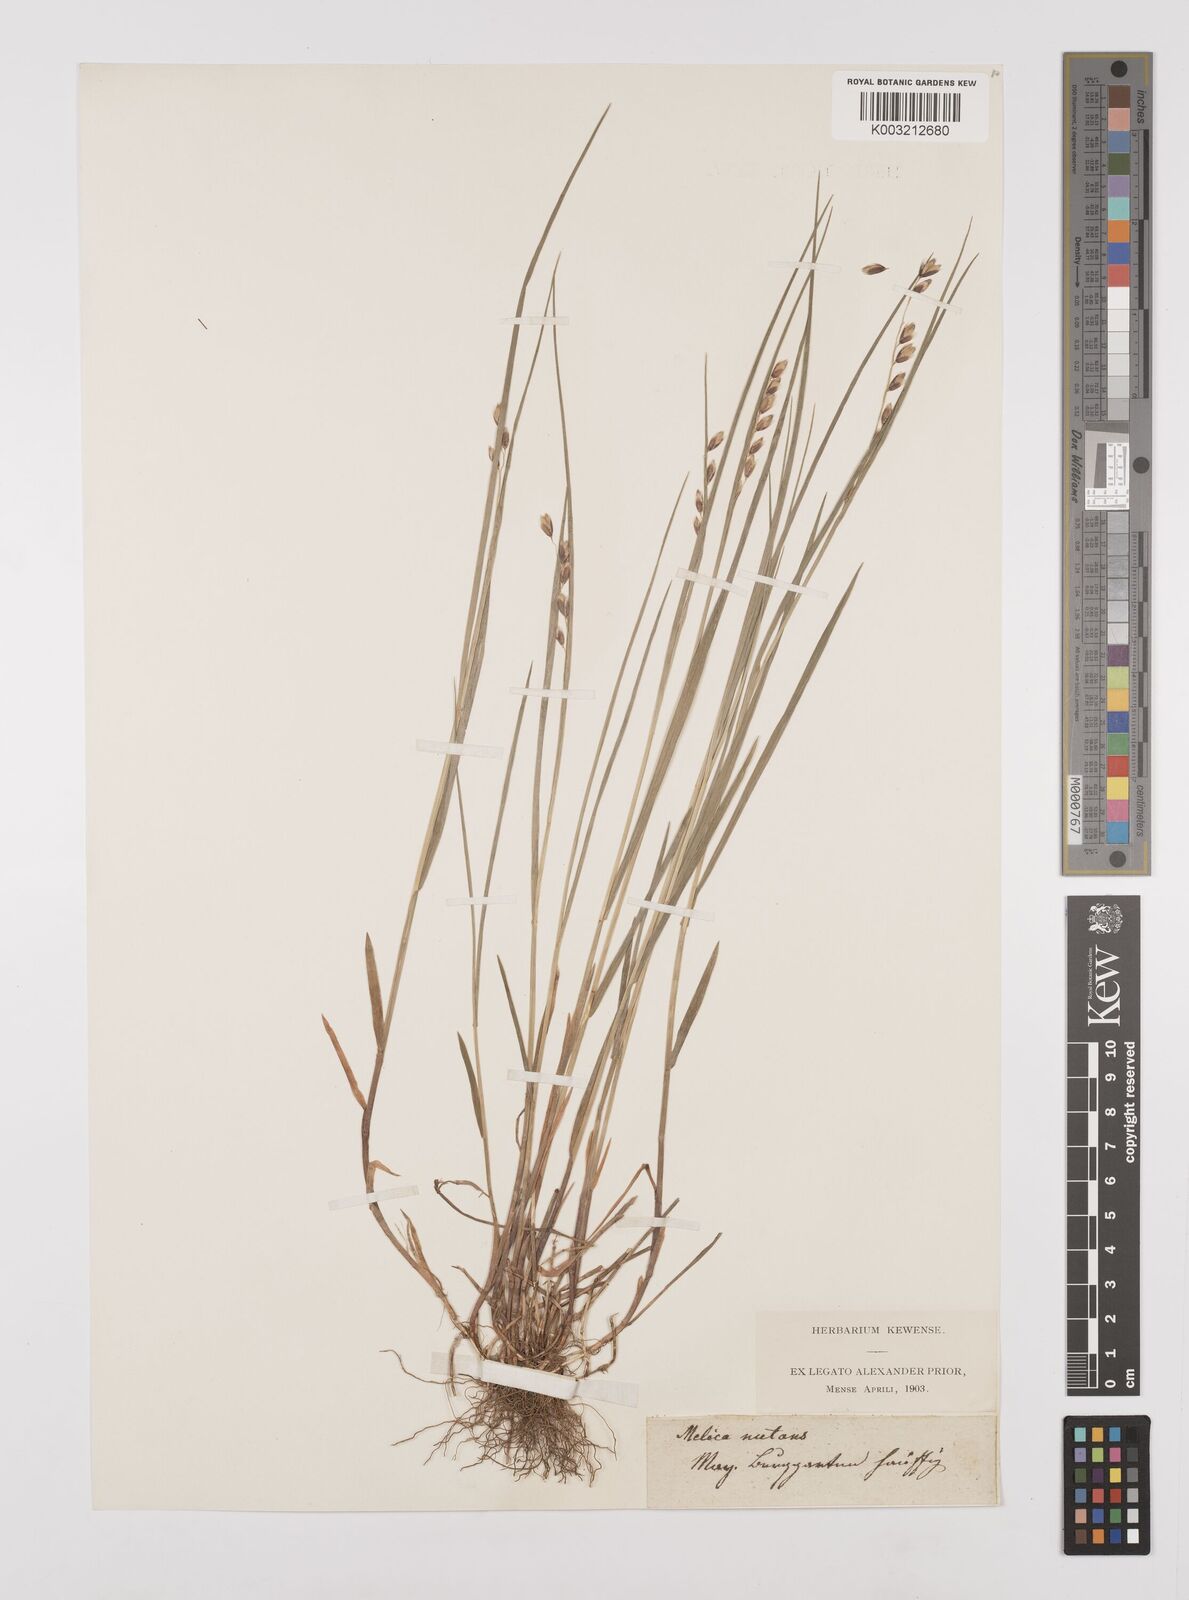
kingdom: Plantae
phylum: Tracheophyta
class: Liliopsida
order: Poales
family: Poaceae
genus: Melica
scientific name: Melica nutans
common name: Mountain melick
